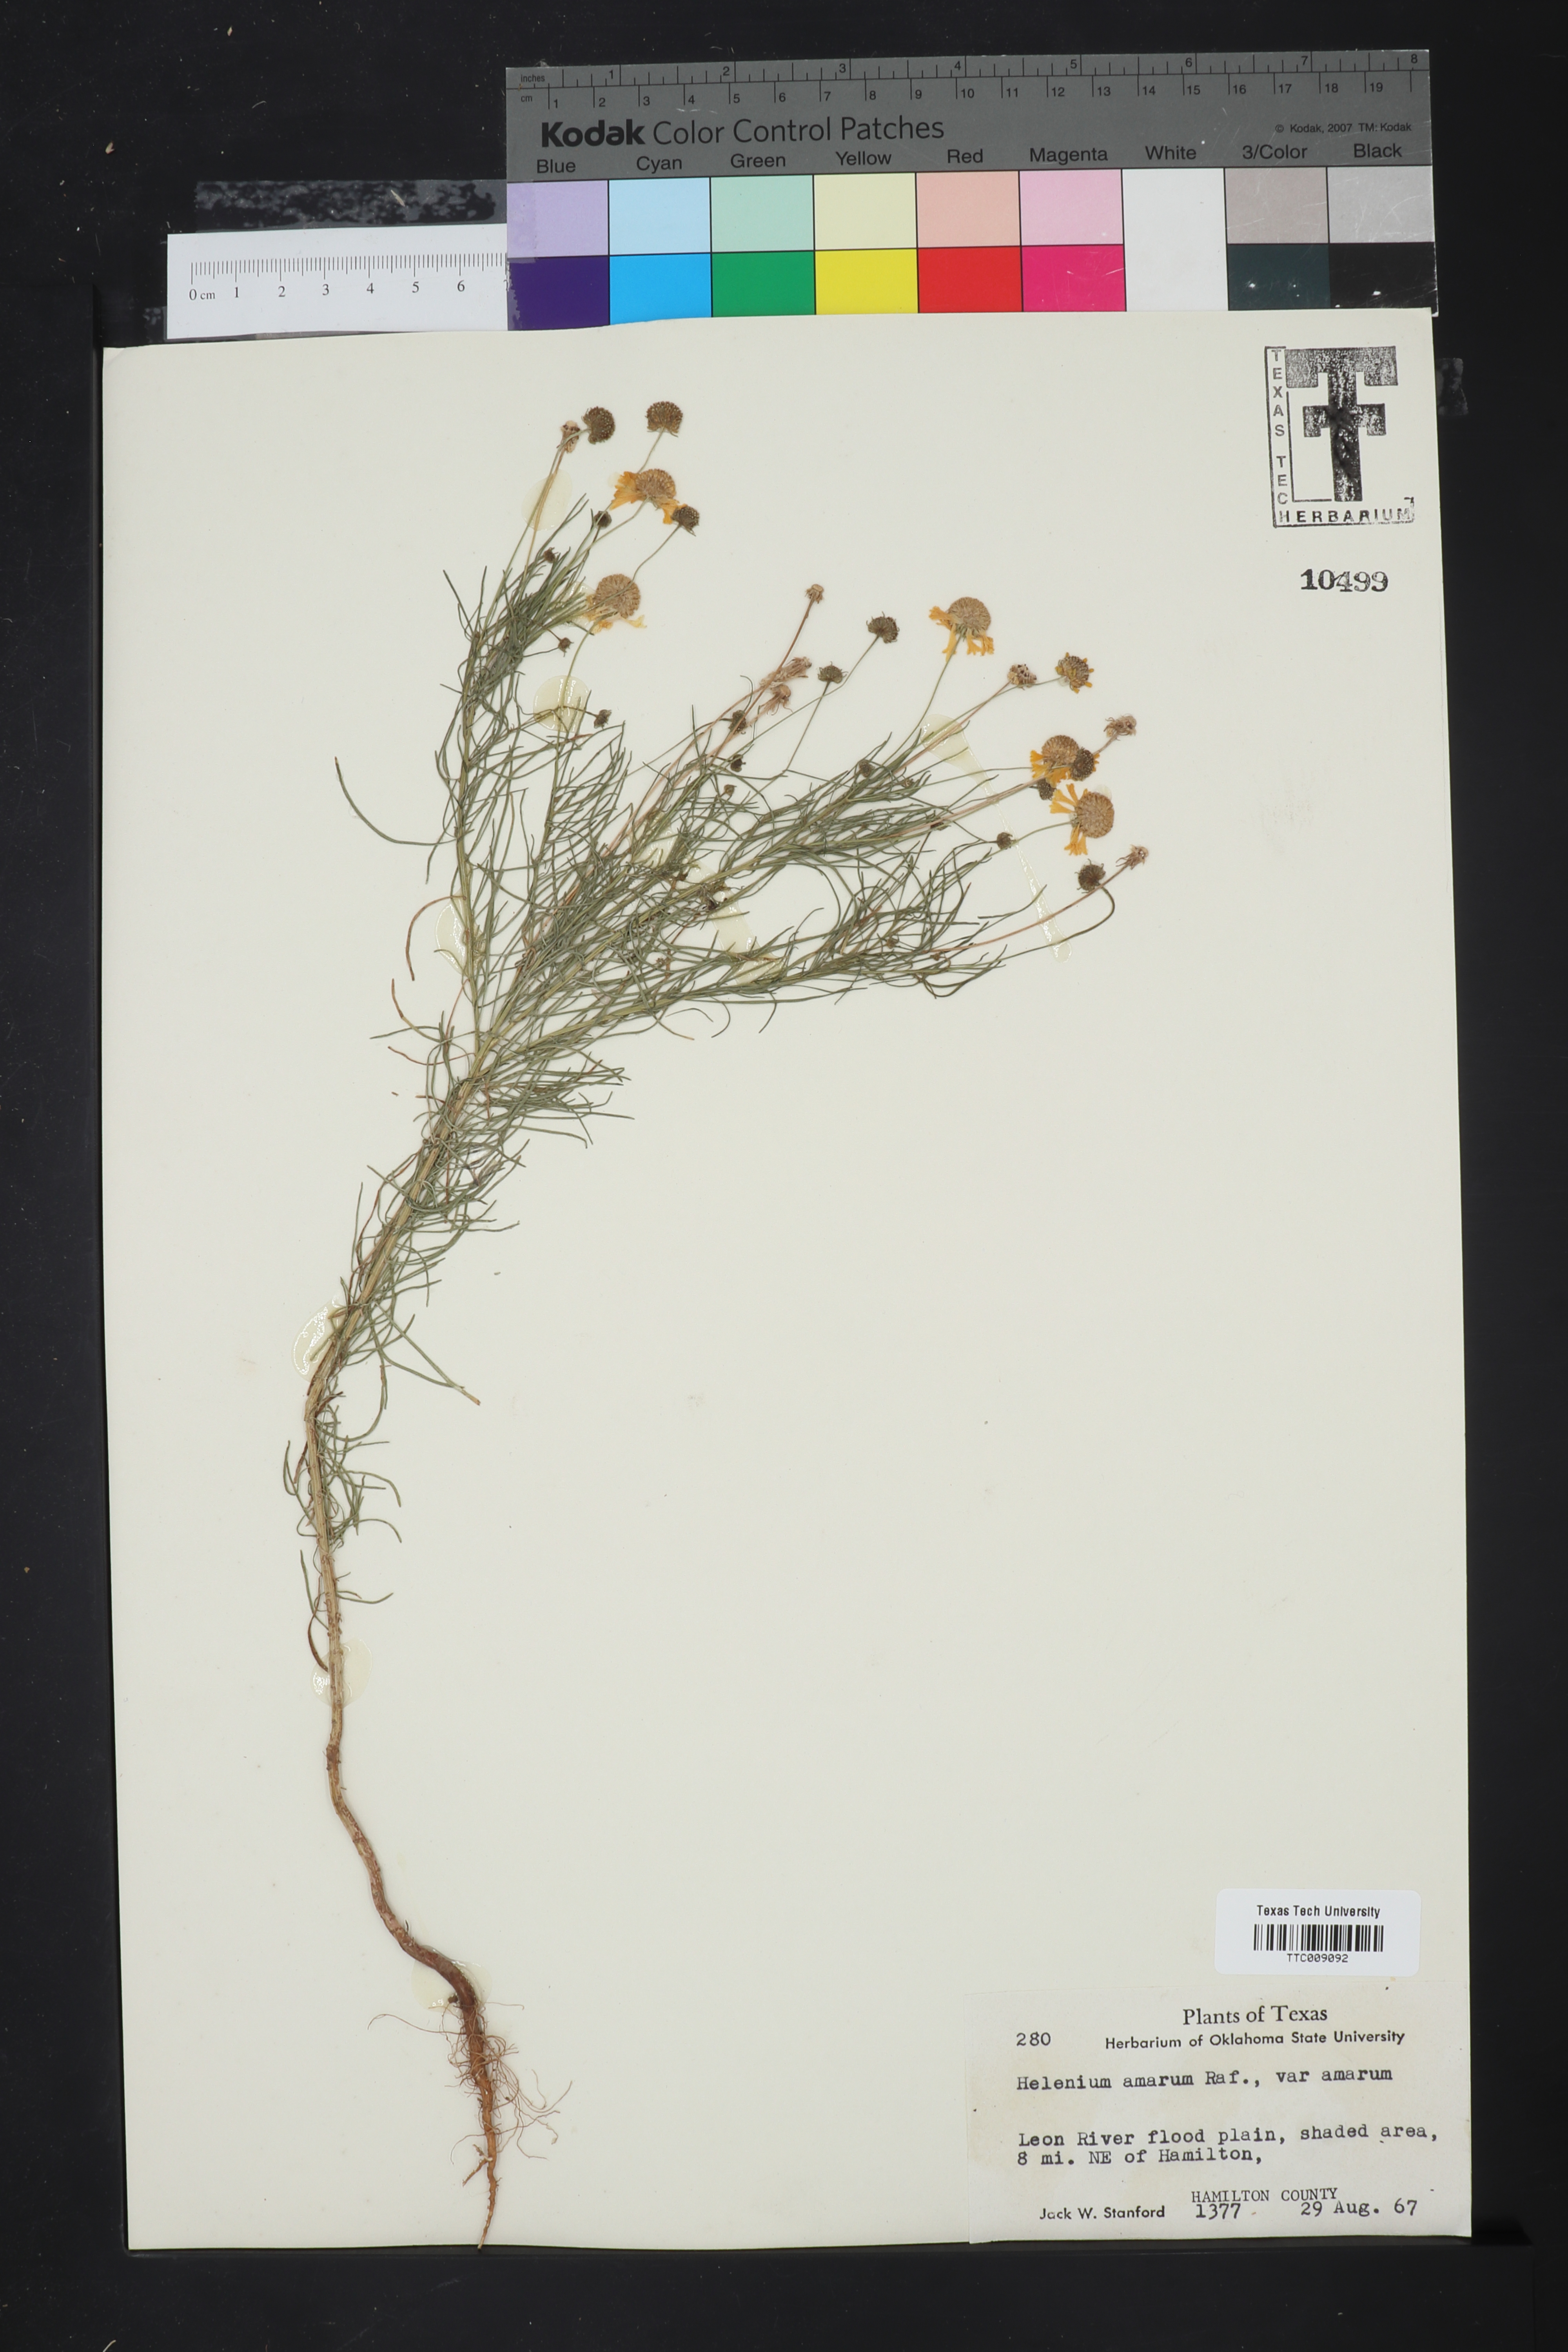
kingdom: Plantae
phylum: Tracheophyta
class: Magnoliopsida
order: Asterales
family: Asteraceae
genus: Helenium
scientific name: Helenium amarum
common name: Bitter sneezeweed
